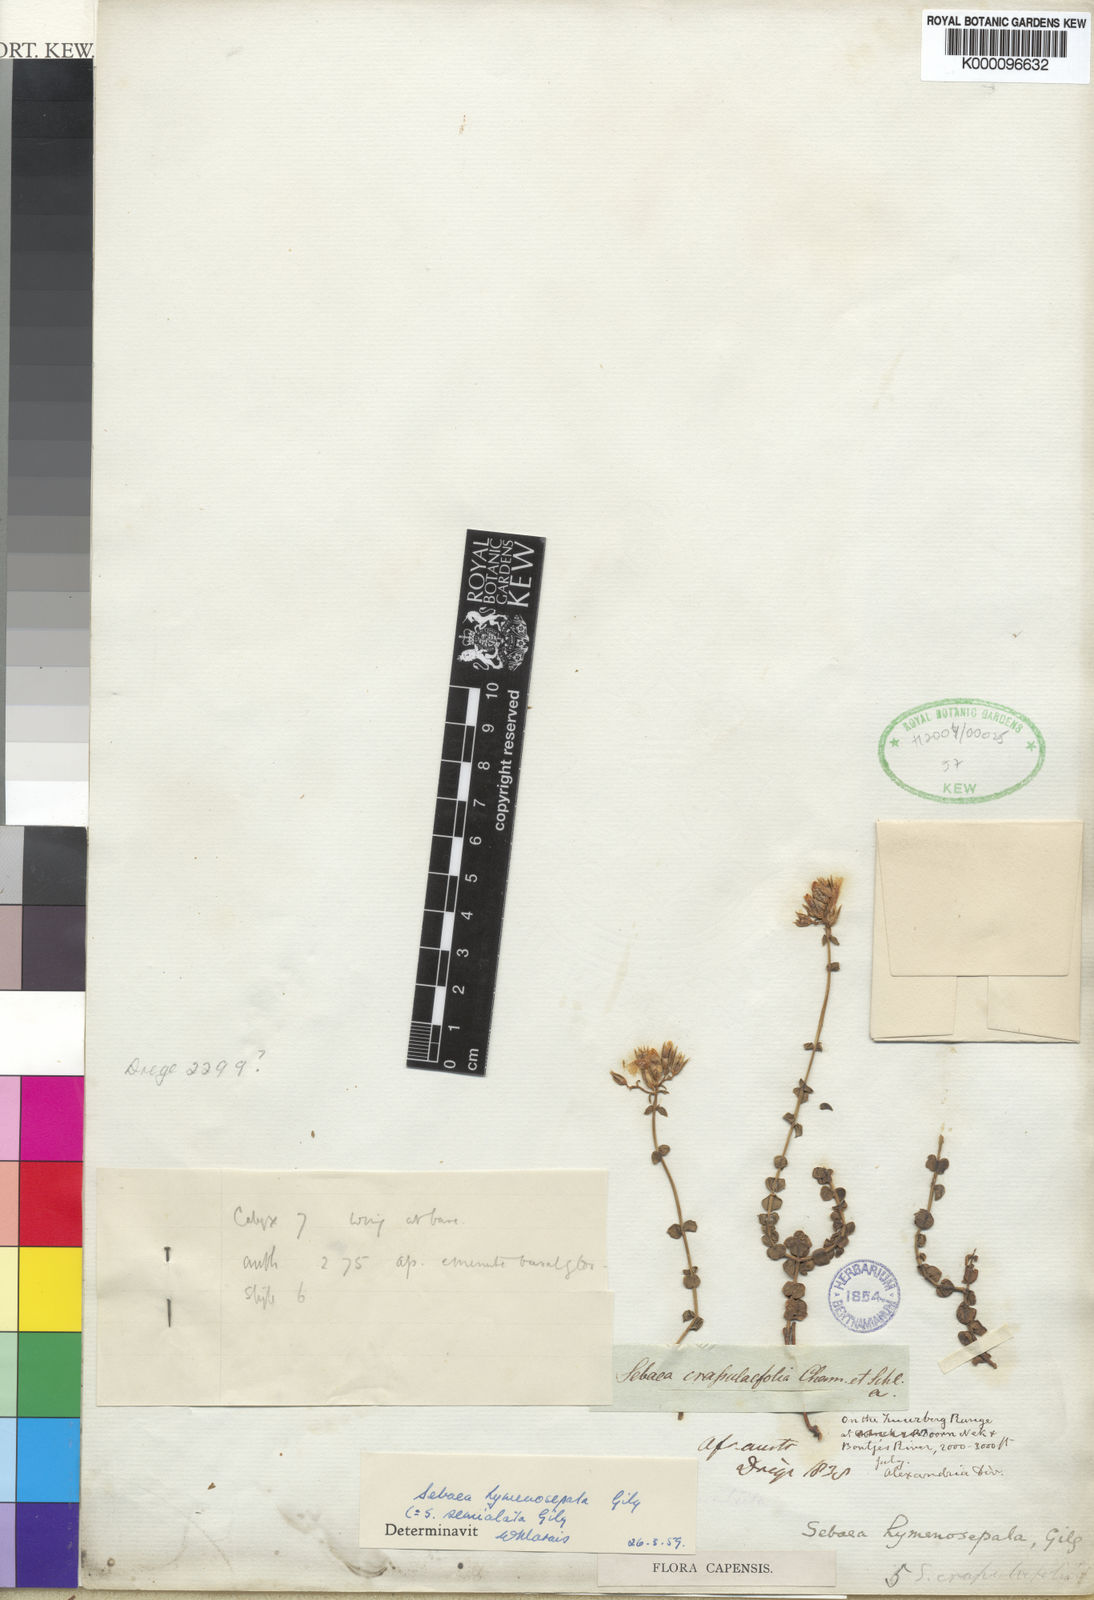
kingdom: Plantae
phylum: Tracheophyta
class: Magnoliopsida
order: Gentianales
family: Gentianaceae
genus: Sebaea
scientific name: Sebaea hymenosepala
